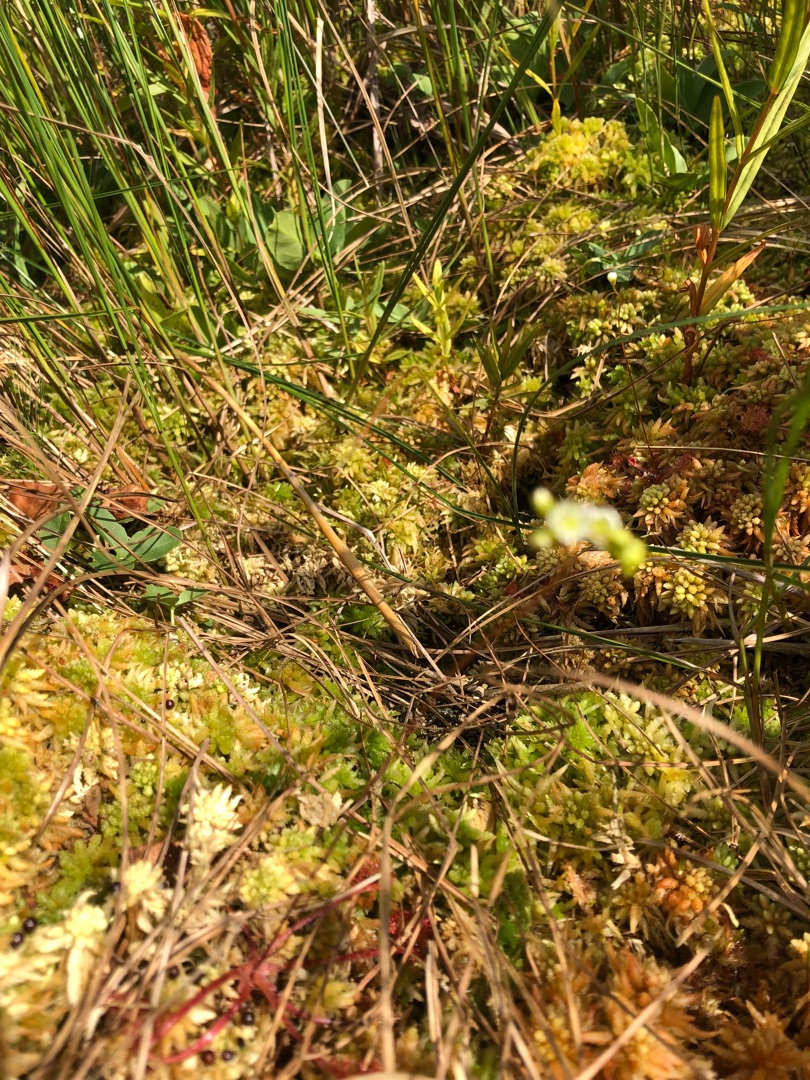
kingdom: Plantae
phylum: Tracheophyta
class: Magnoliopsida
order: Caryophyllales
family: Droseraceae
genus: Drosera
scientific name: Drosera rotundifolia
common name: Rundbladet soldug
